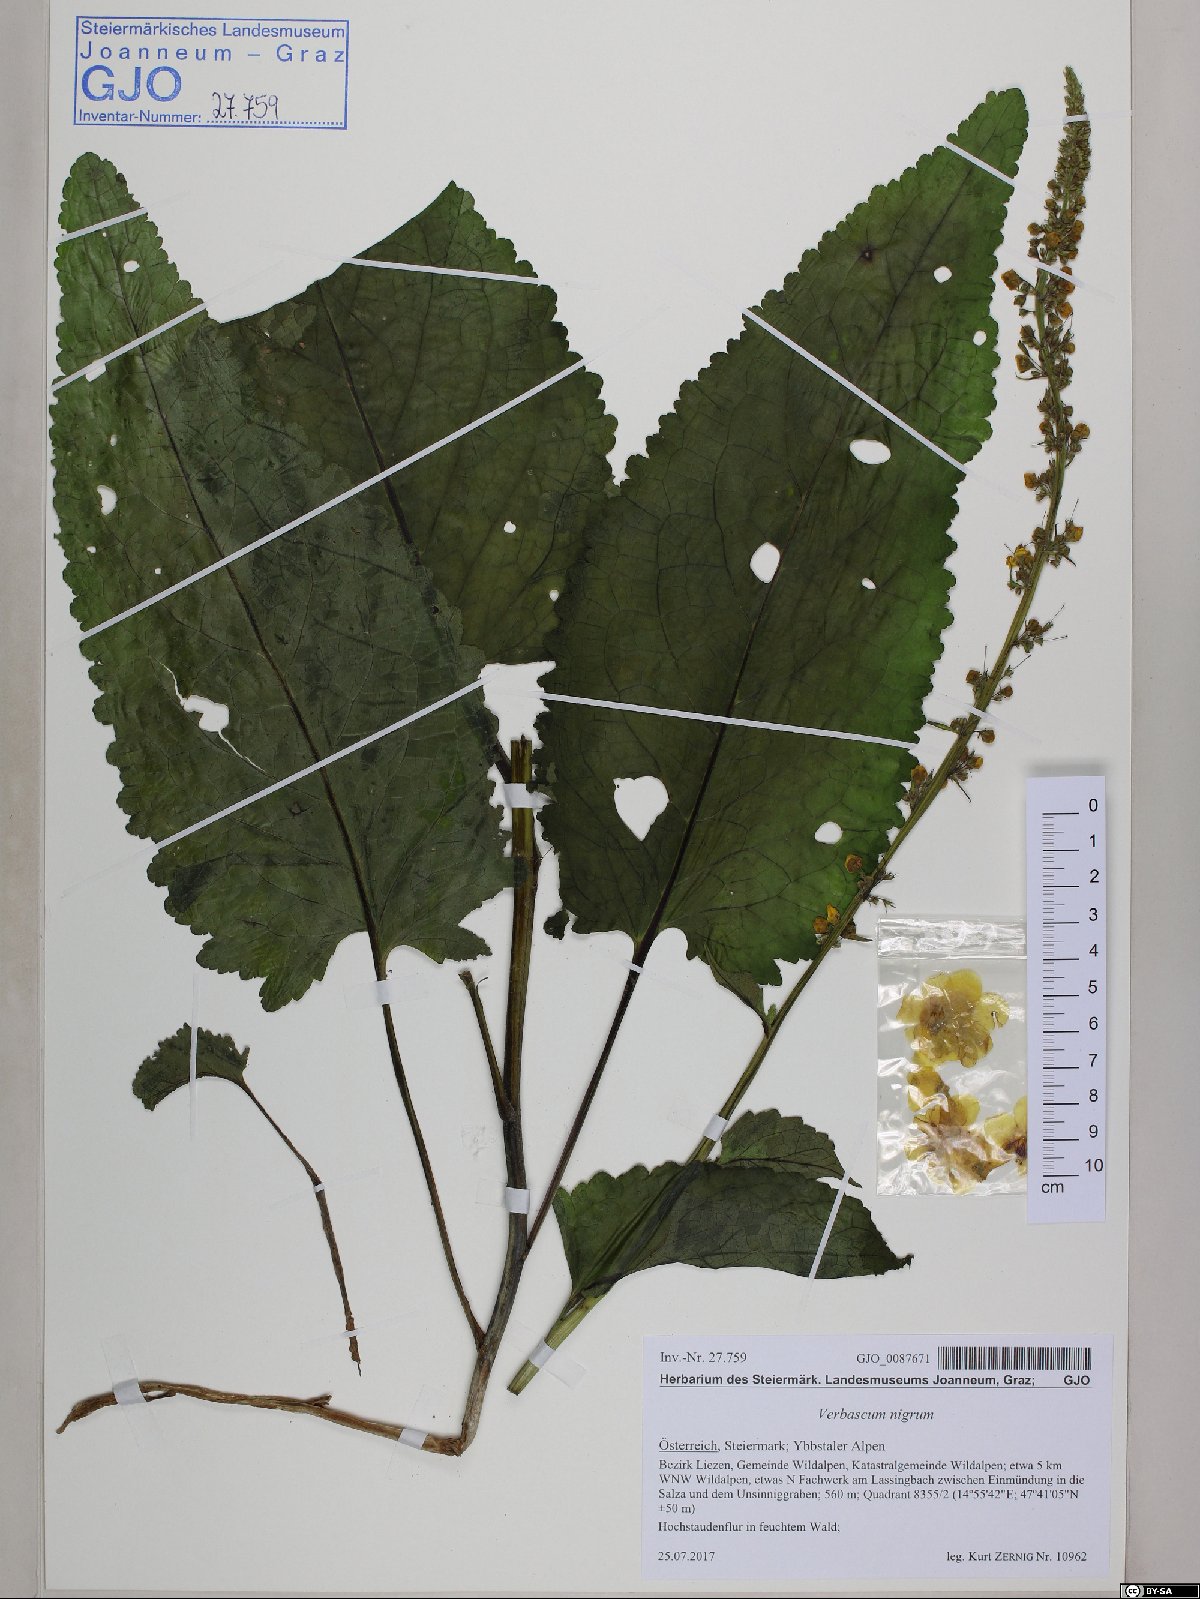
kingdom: Plantae
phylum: Tracheophyta
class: Magnoliopsida
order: Lamiales
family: Scrophulariaceae
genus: Verbascum
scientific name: Verbascum nigrum
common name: Dark mullein
